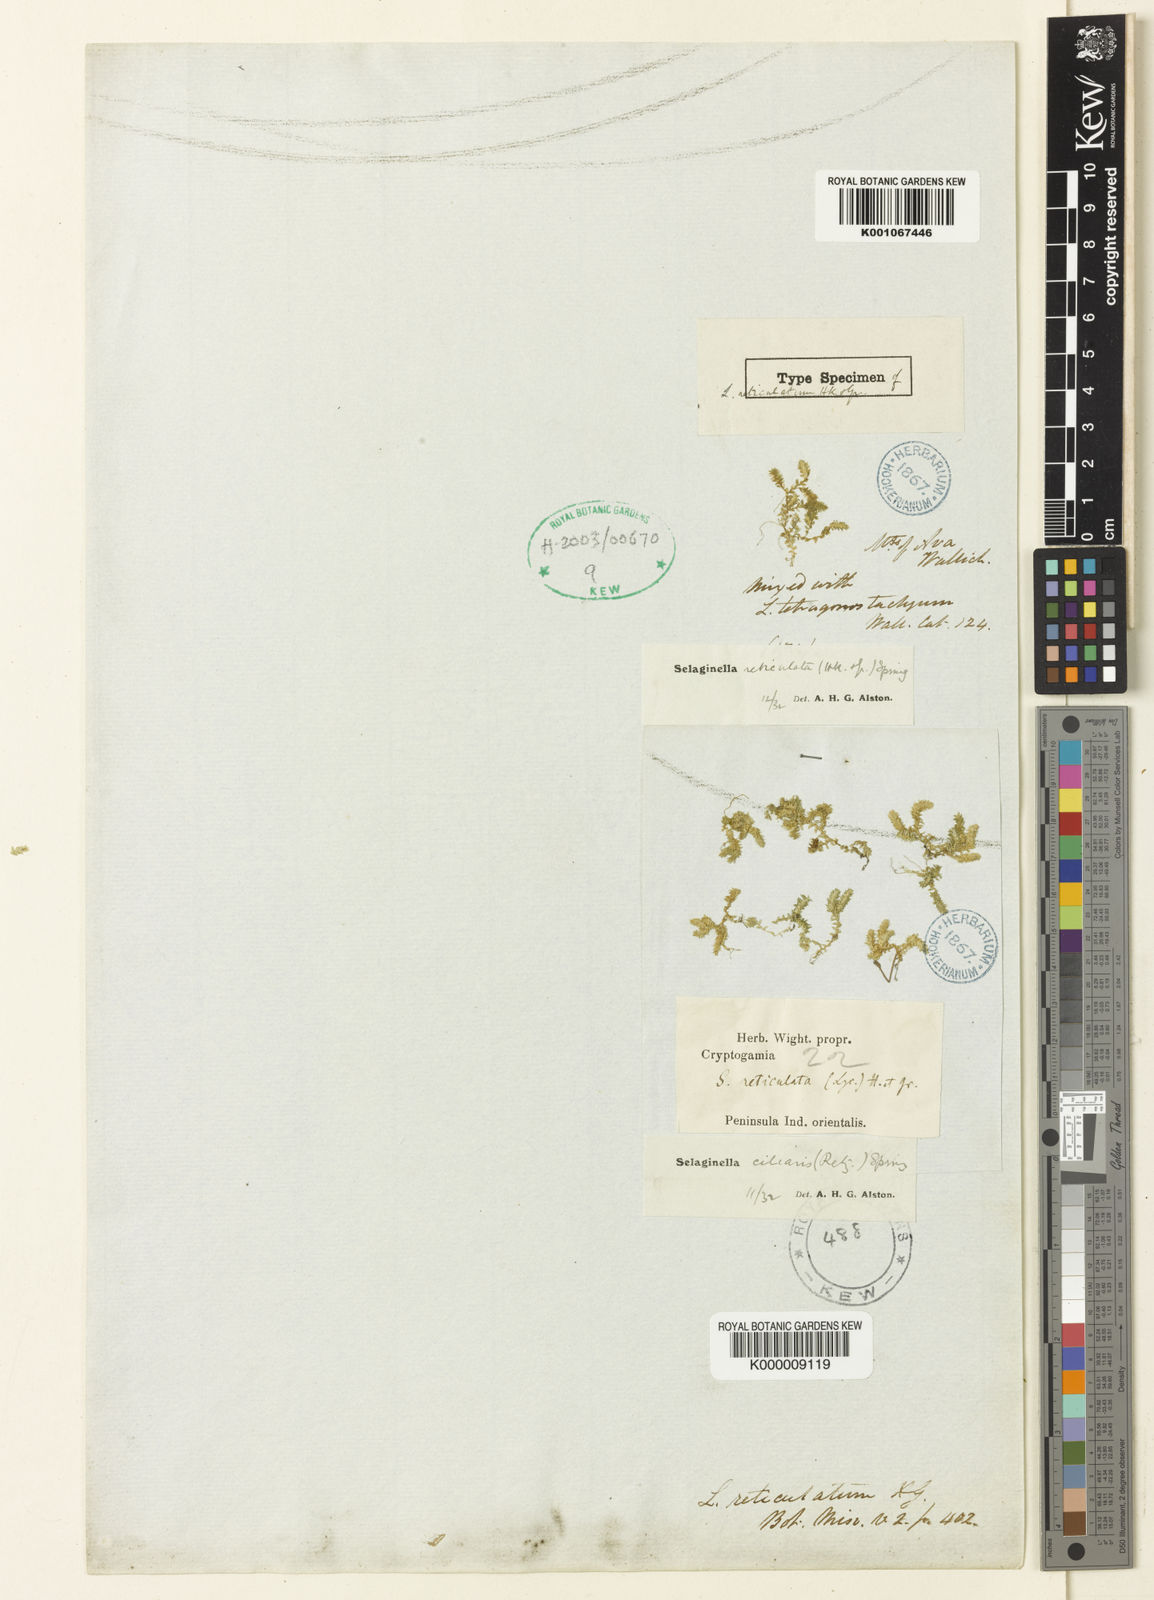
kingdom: Plantae
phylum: Tracheophyta
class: Lycopodiopsida
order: Selaginellales
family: Selaginellaceae
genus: Selaginella
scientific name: Selaginella reticulata
